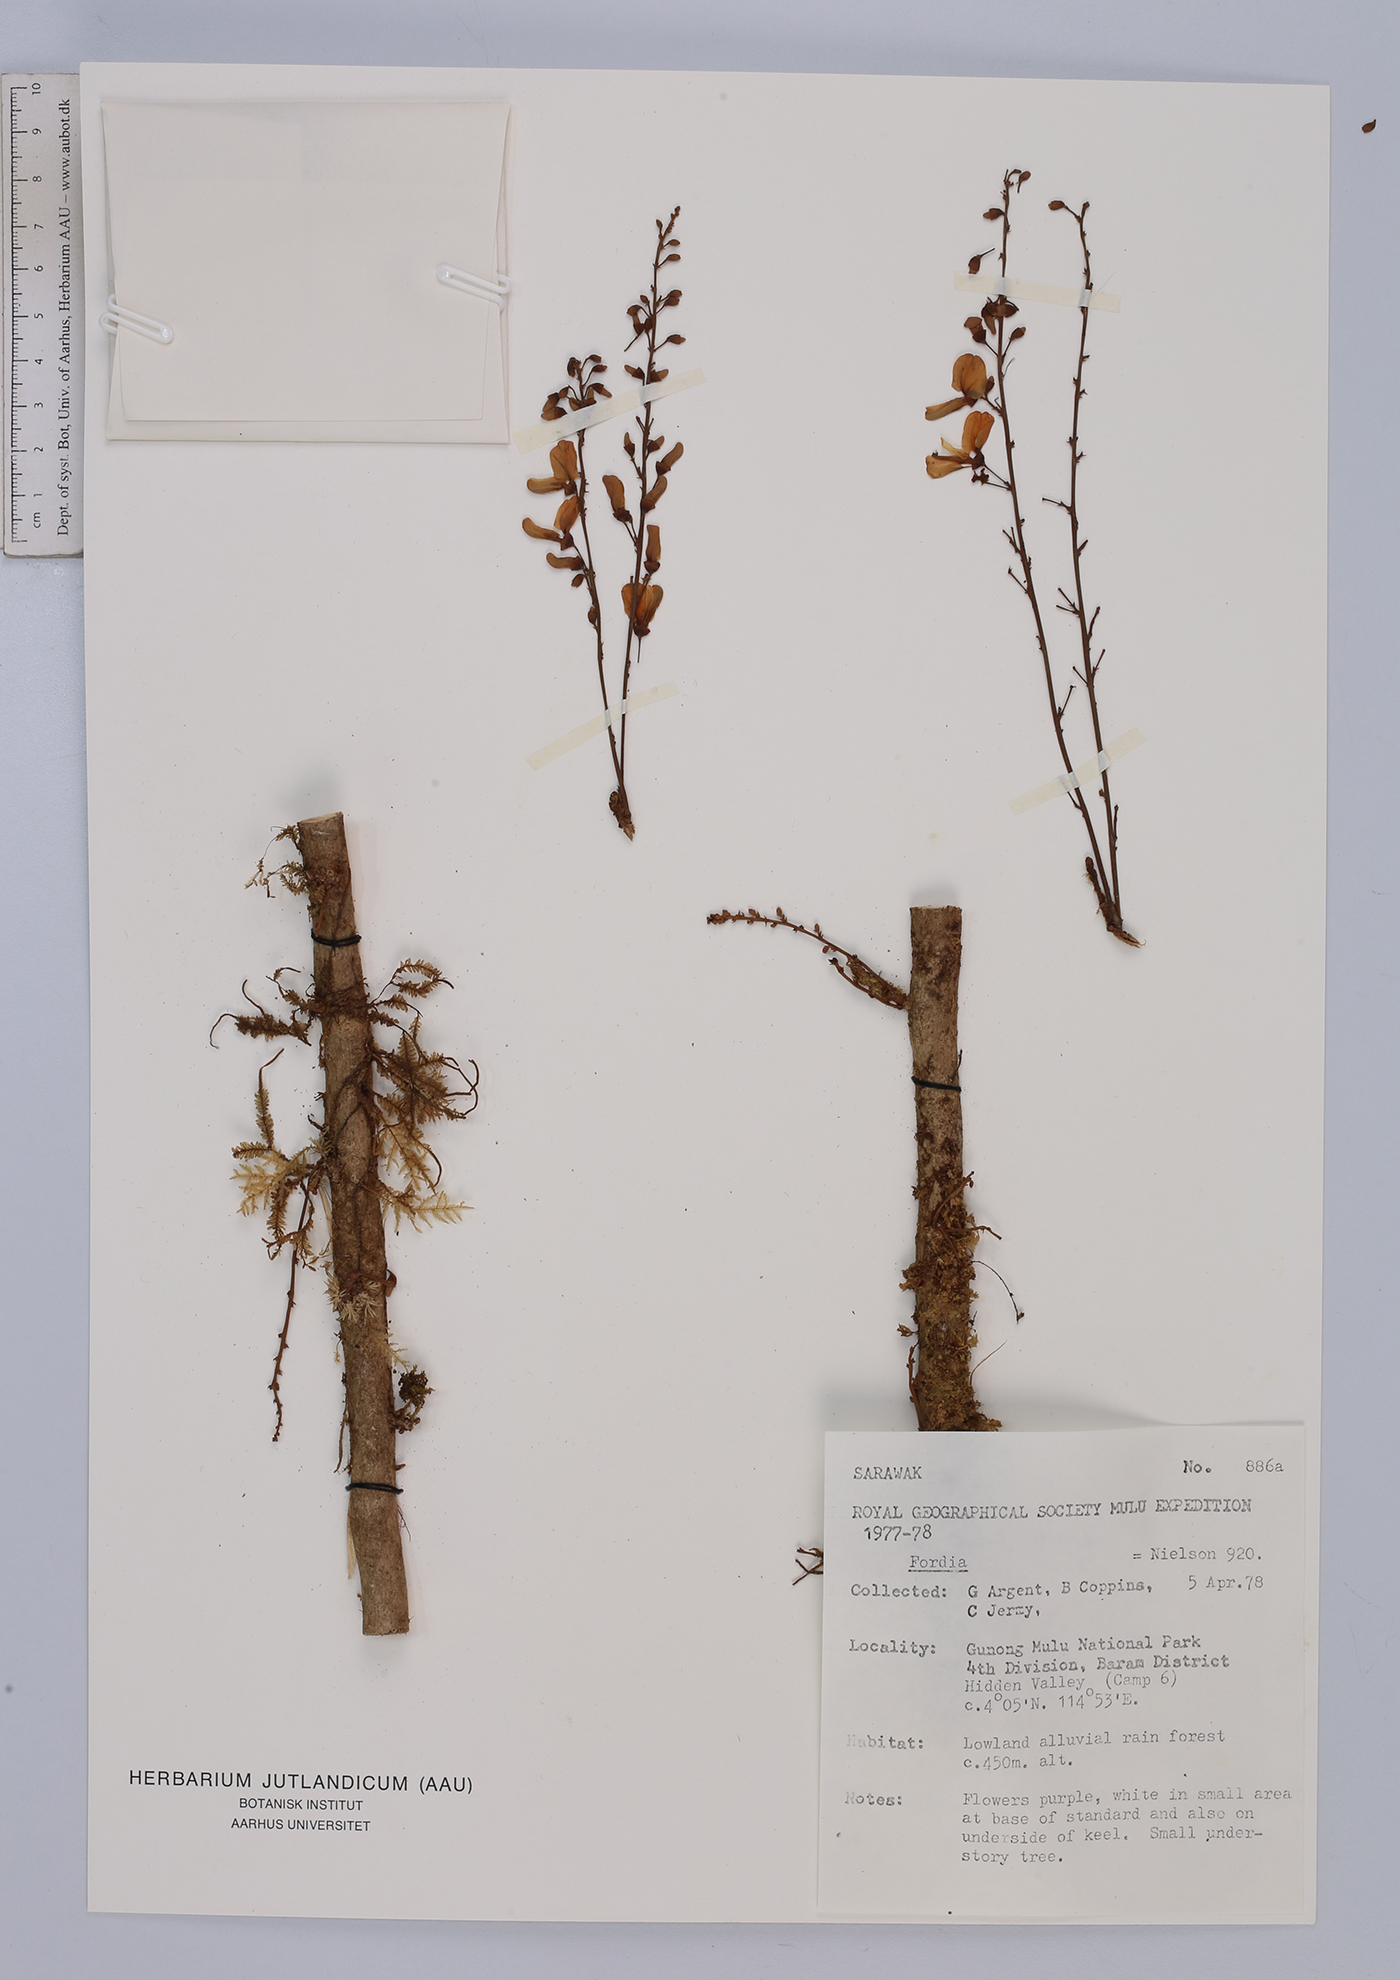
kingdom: Plantae
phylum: Tracheophyta
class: Magnoliopsida
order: Fabales
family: Fabaceae
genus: Fordia
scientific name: Fordia
